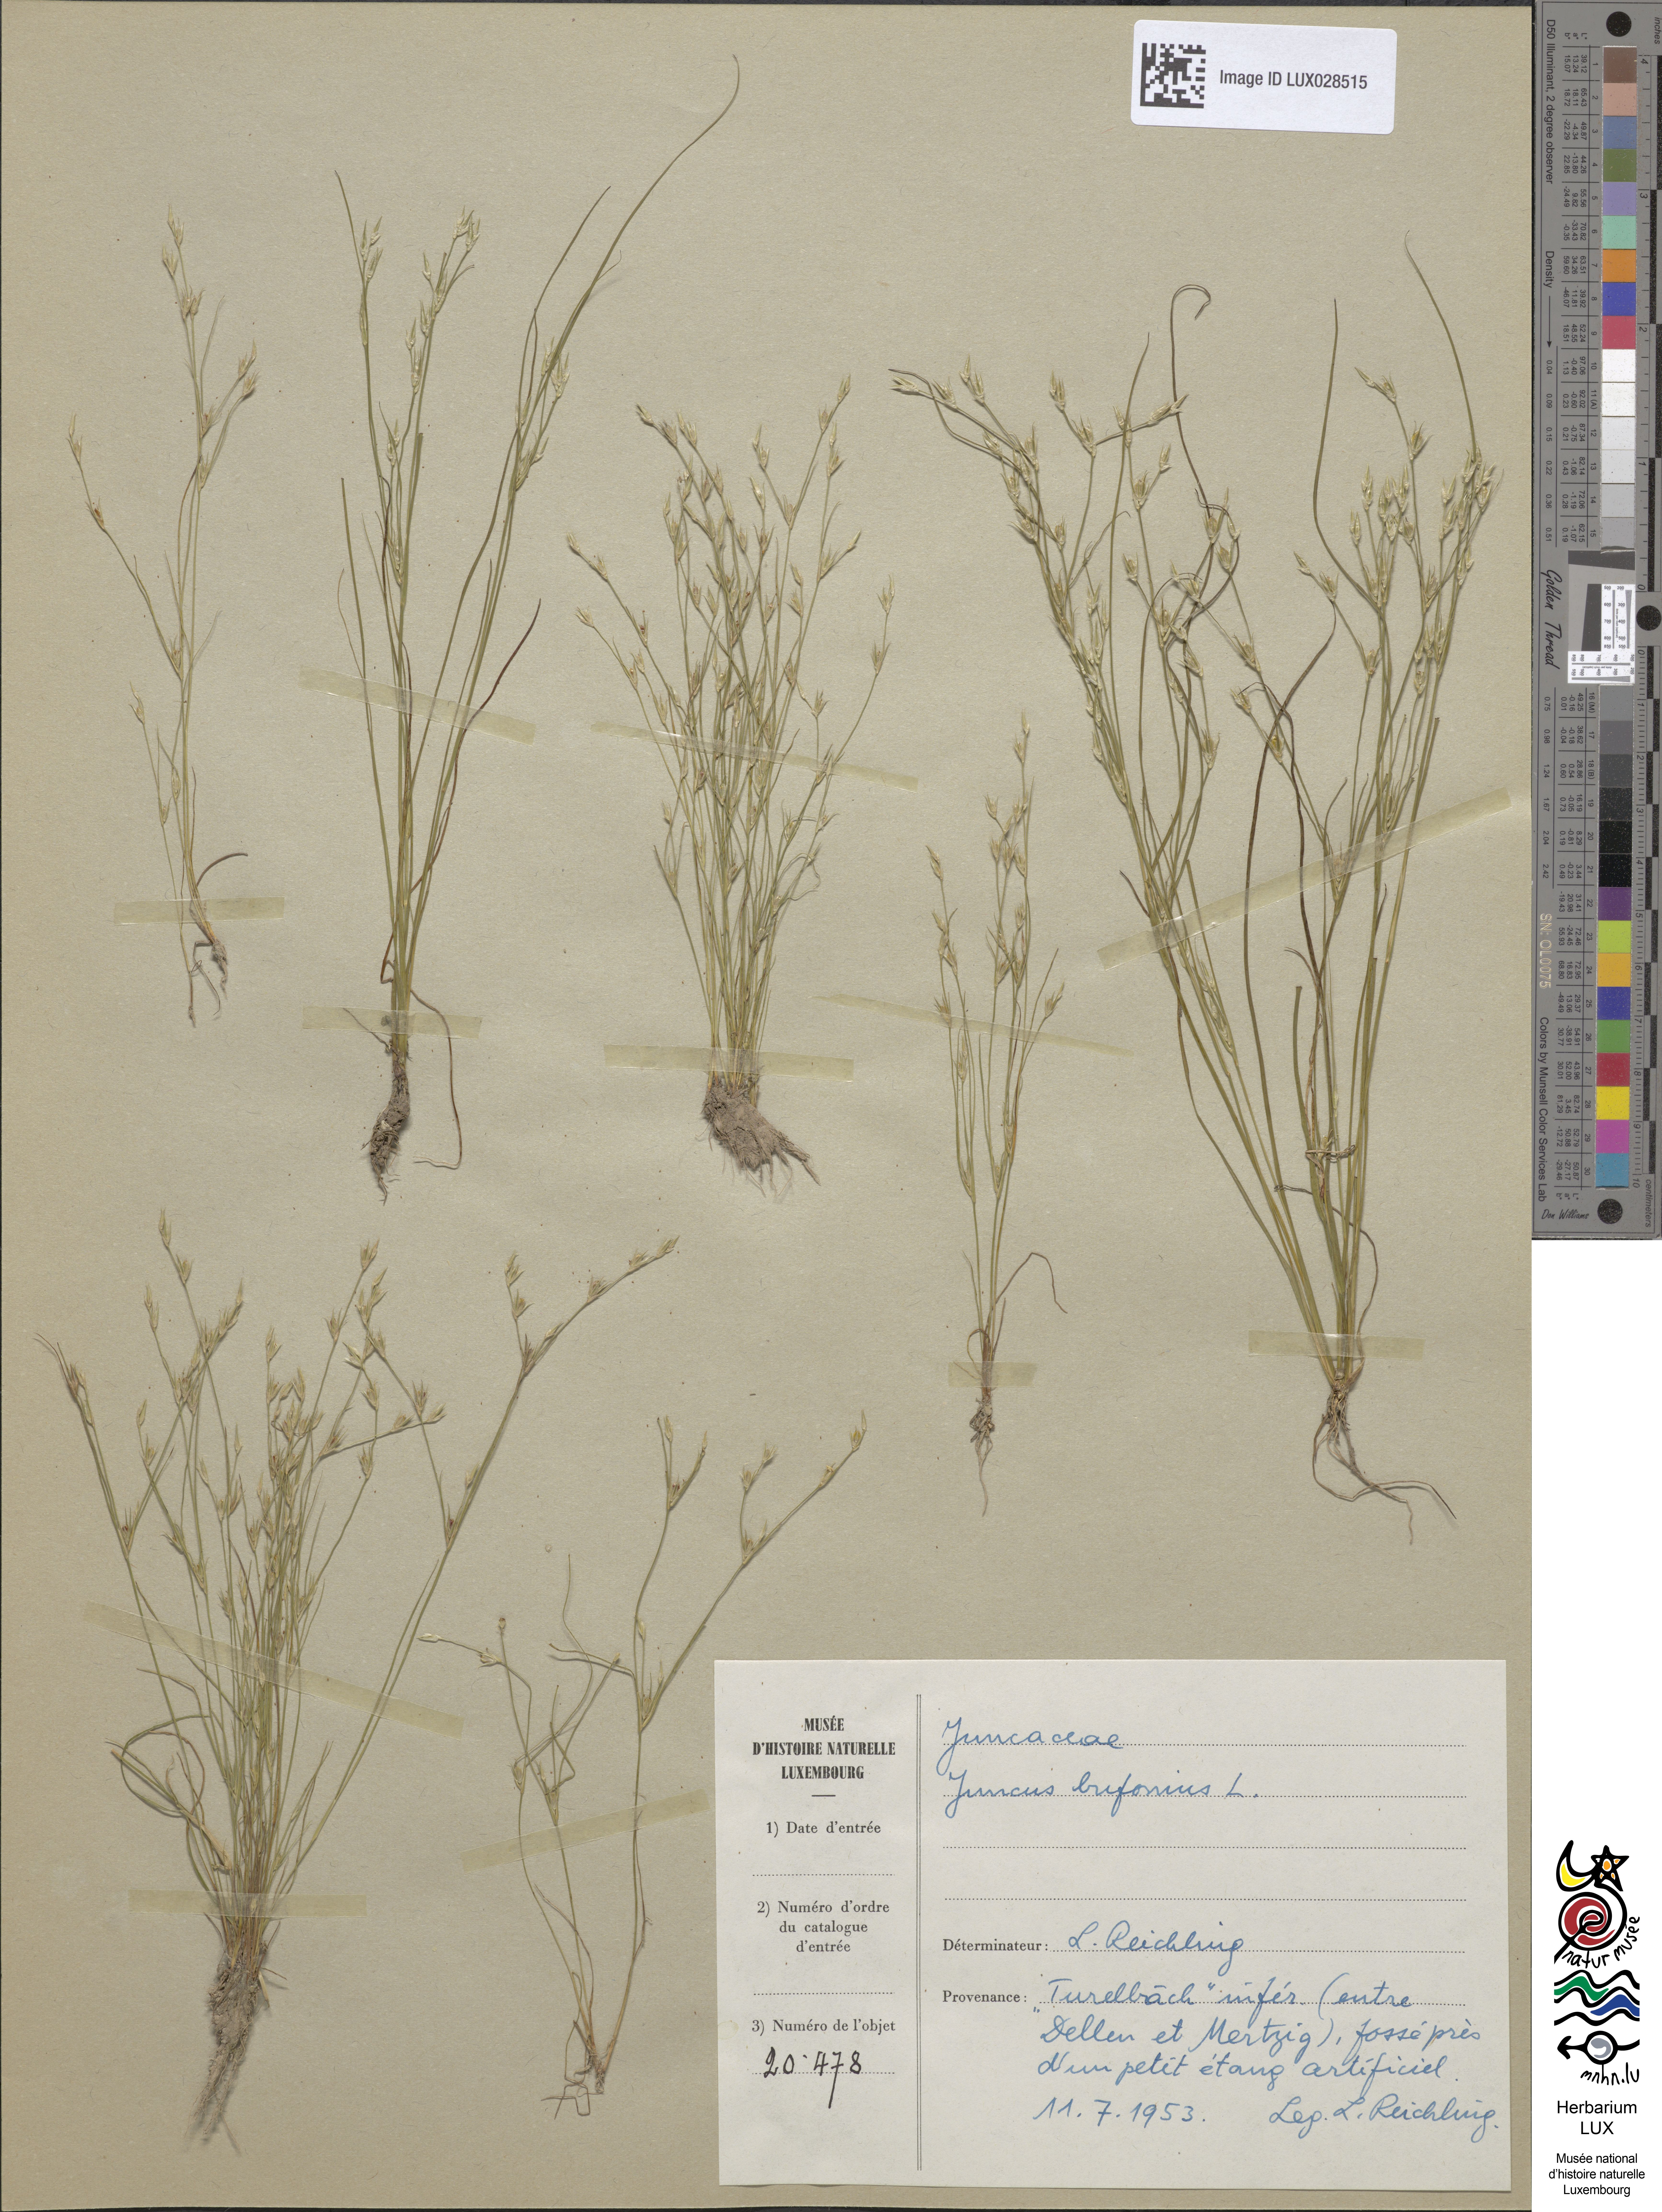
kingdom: Plantae
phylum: Tracheophyta
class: Liliopsida
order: Poales
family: Juncaceae
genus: Juncus
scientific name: Juncus bufonius
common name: Toad rush
